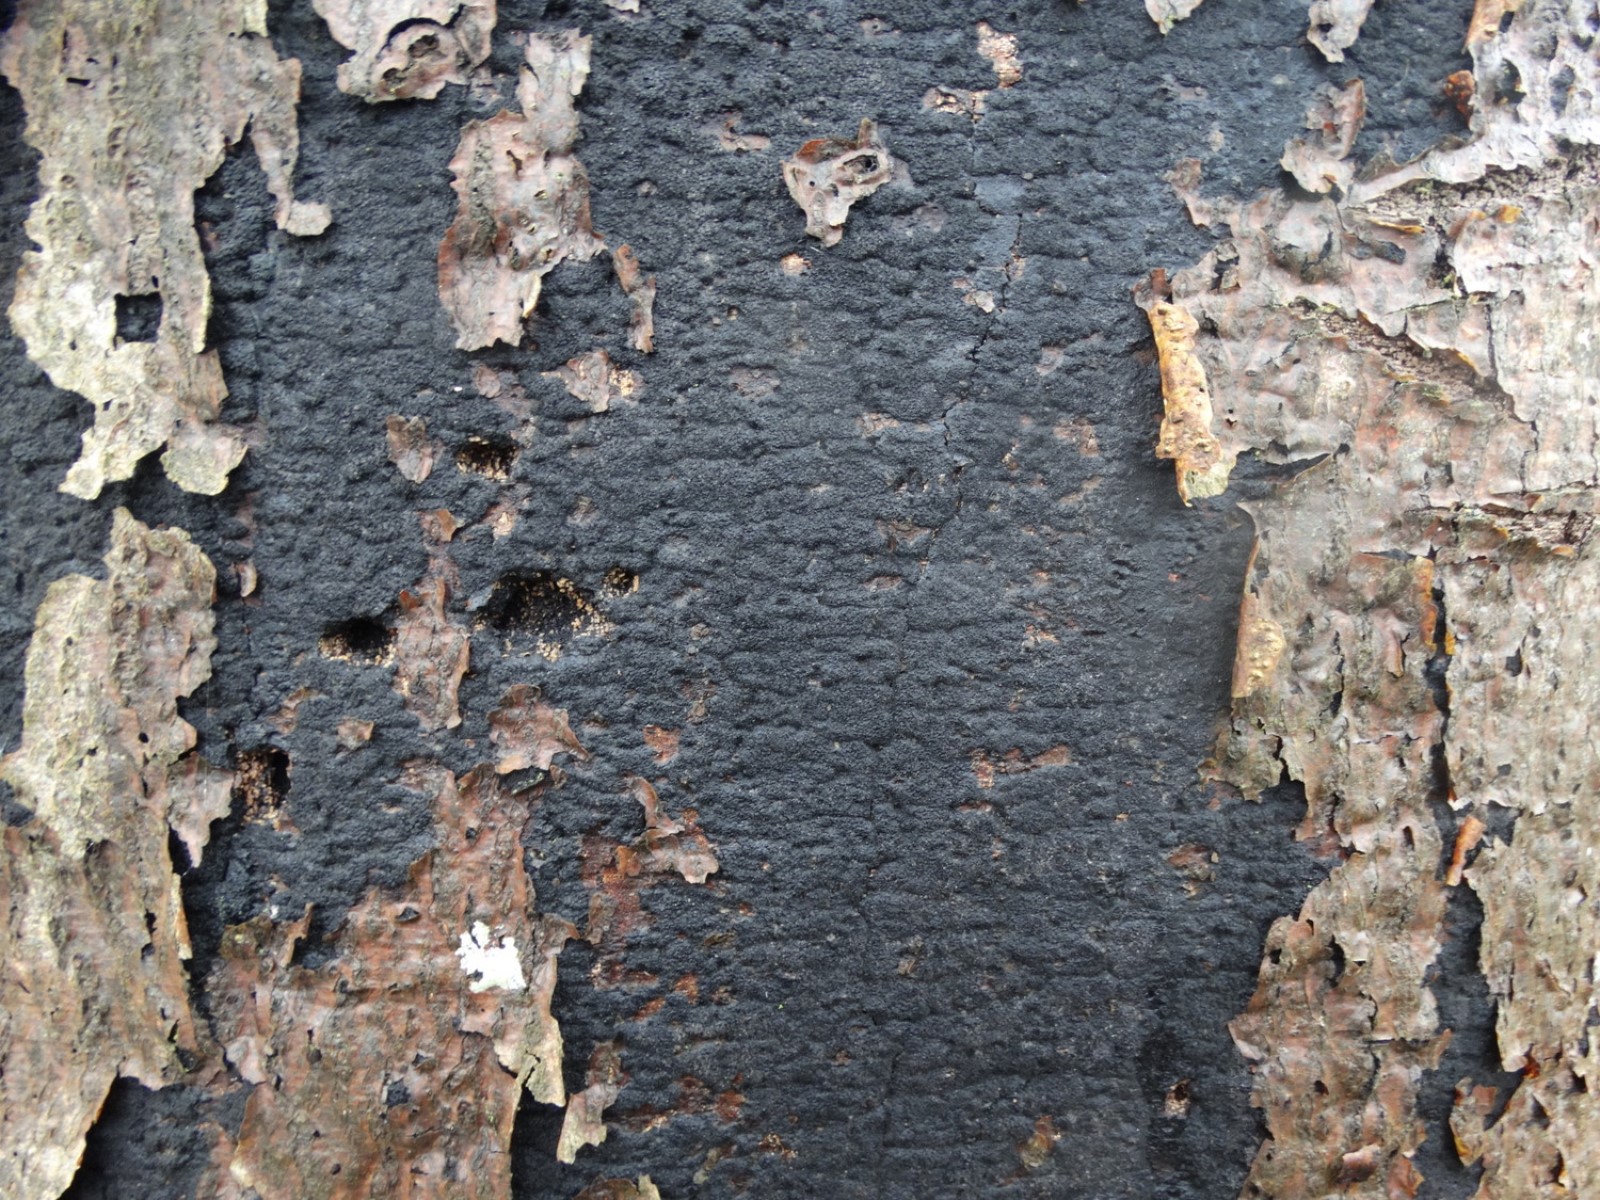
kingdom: Fungi
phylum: Ascomycota
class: Sordariomycetes
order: Xylariales
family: Diatrypaceae
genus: Eutypa
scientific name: Eutypa spinosa
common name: grov kulskorpe
